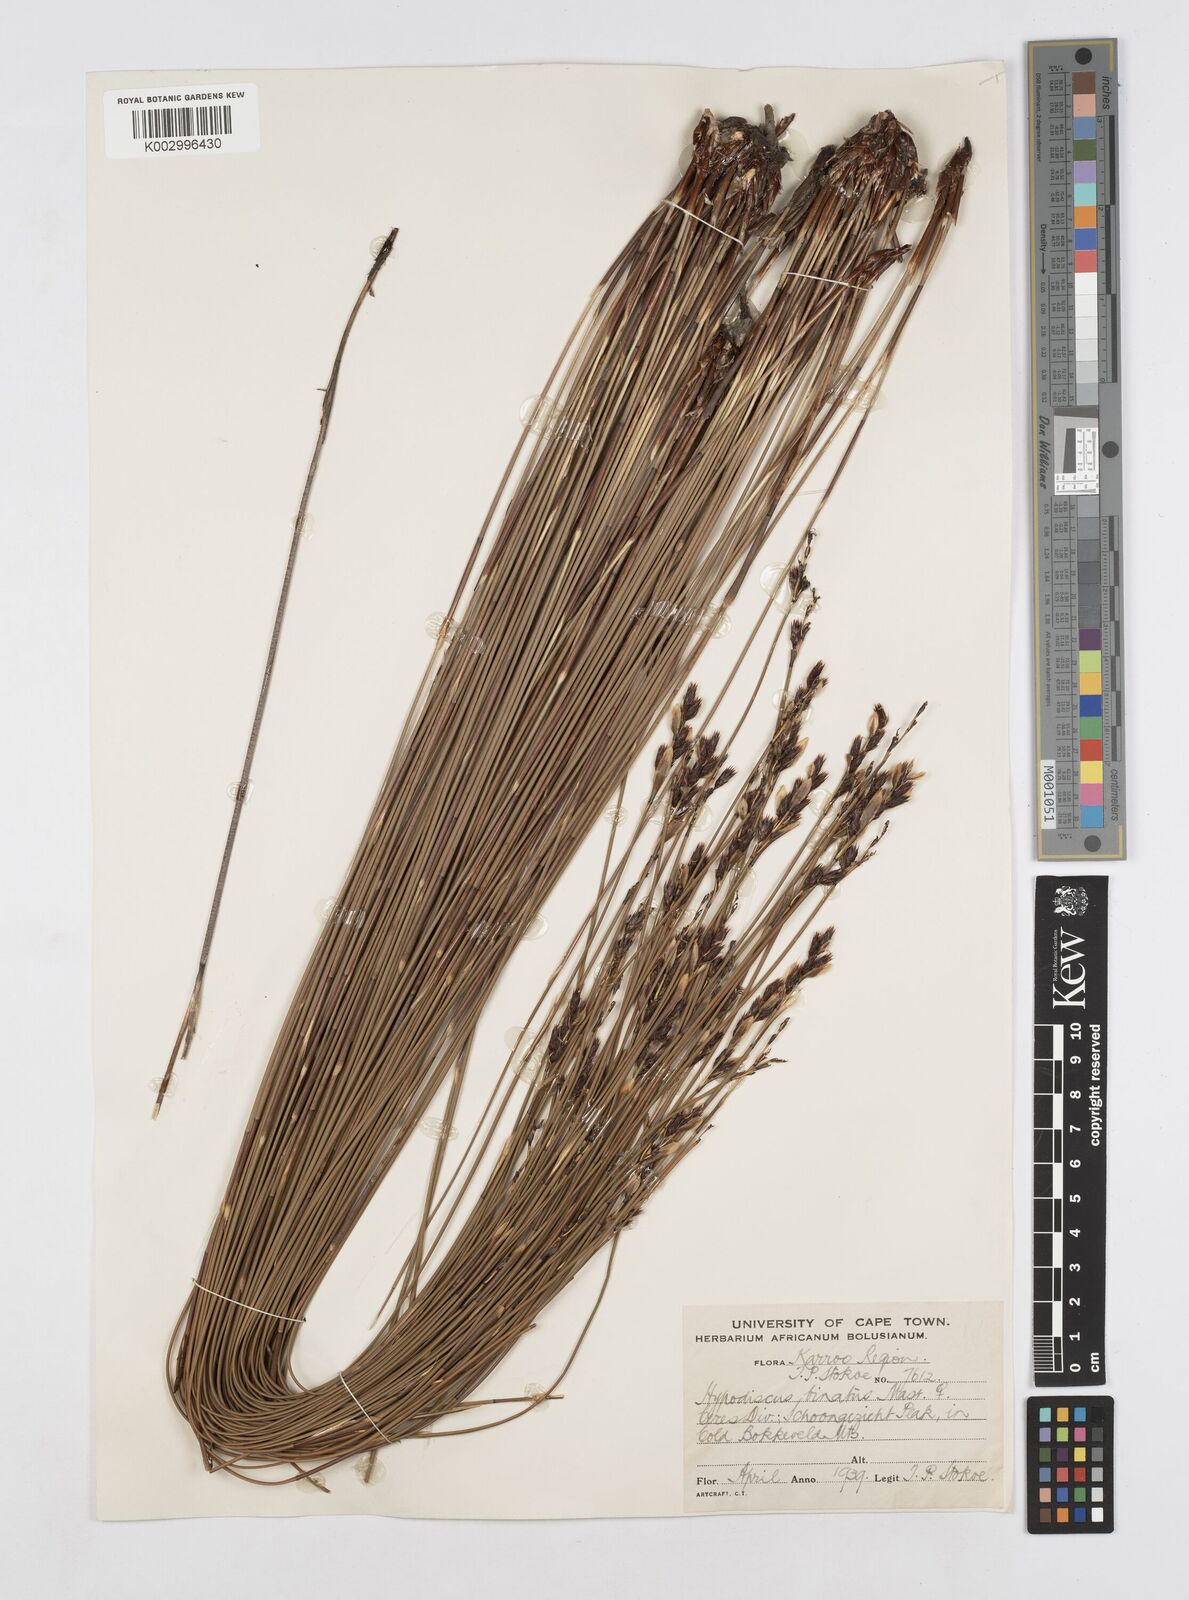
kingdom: Plantae
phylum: Tracheophyta
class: Liliopsida
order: Poales
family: Restionaceae
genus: Hypodiscus
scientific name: Hypodiscus laevigatus
